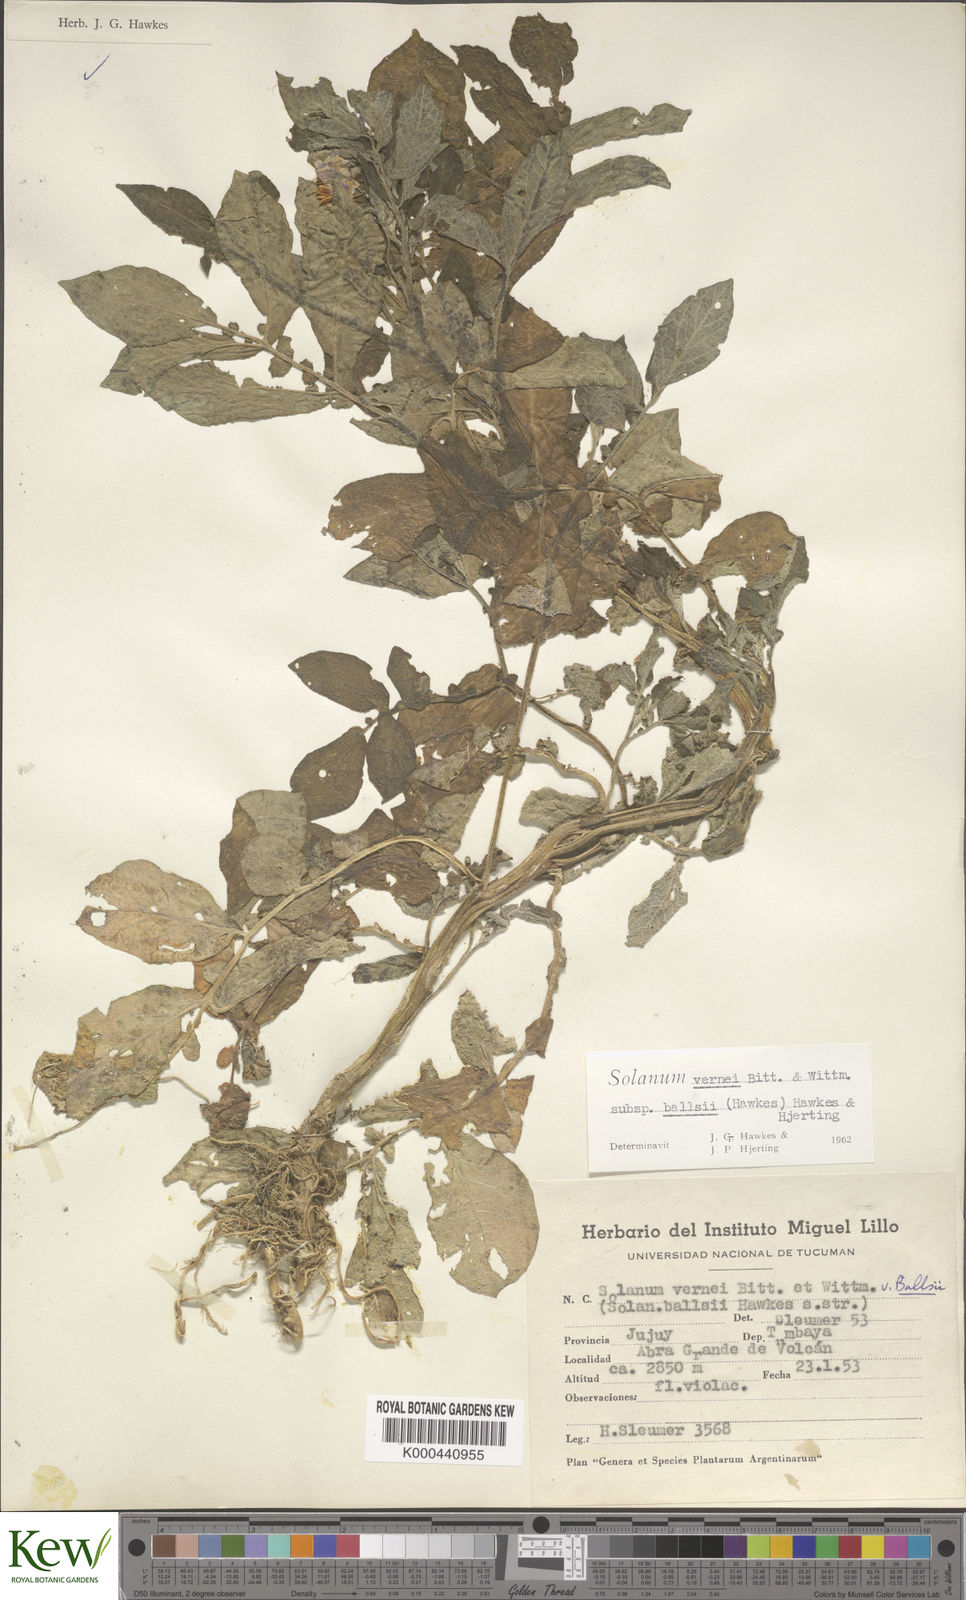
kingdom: Plantae
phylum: Tracheophyta
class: Magnoliopsida
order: Solanales
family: Solanaceae
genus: Solanum
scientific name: Solanum vernei
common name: Purple potato
